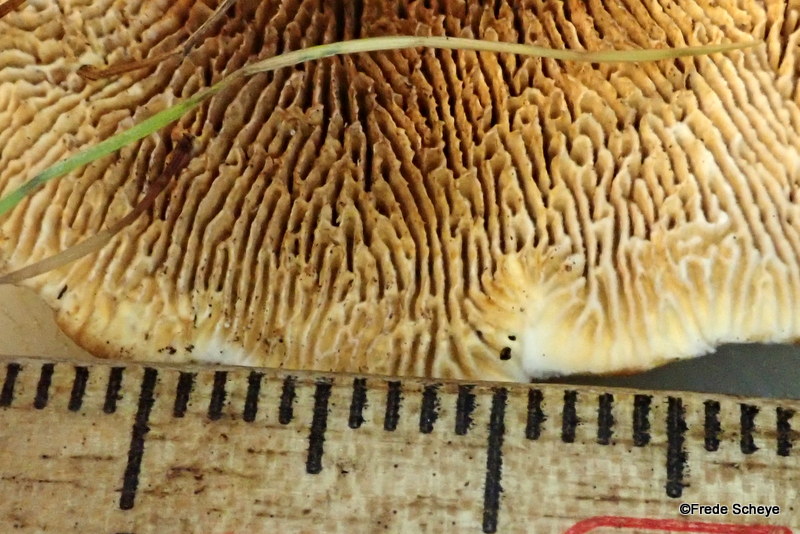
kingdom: Fungi
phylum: Basidiomycota
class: Agaricomycetes
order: Gloeophyllales
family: Gloeophyllaceae
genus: Gloeophyllum
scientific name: Gloeophyllum sepiarium
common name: fyrre-korkhat
